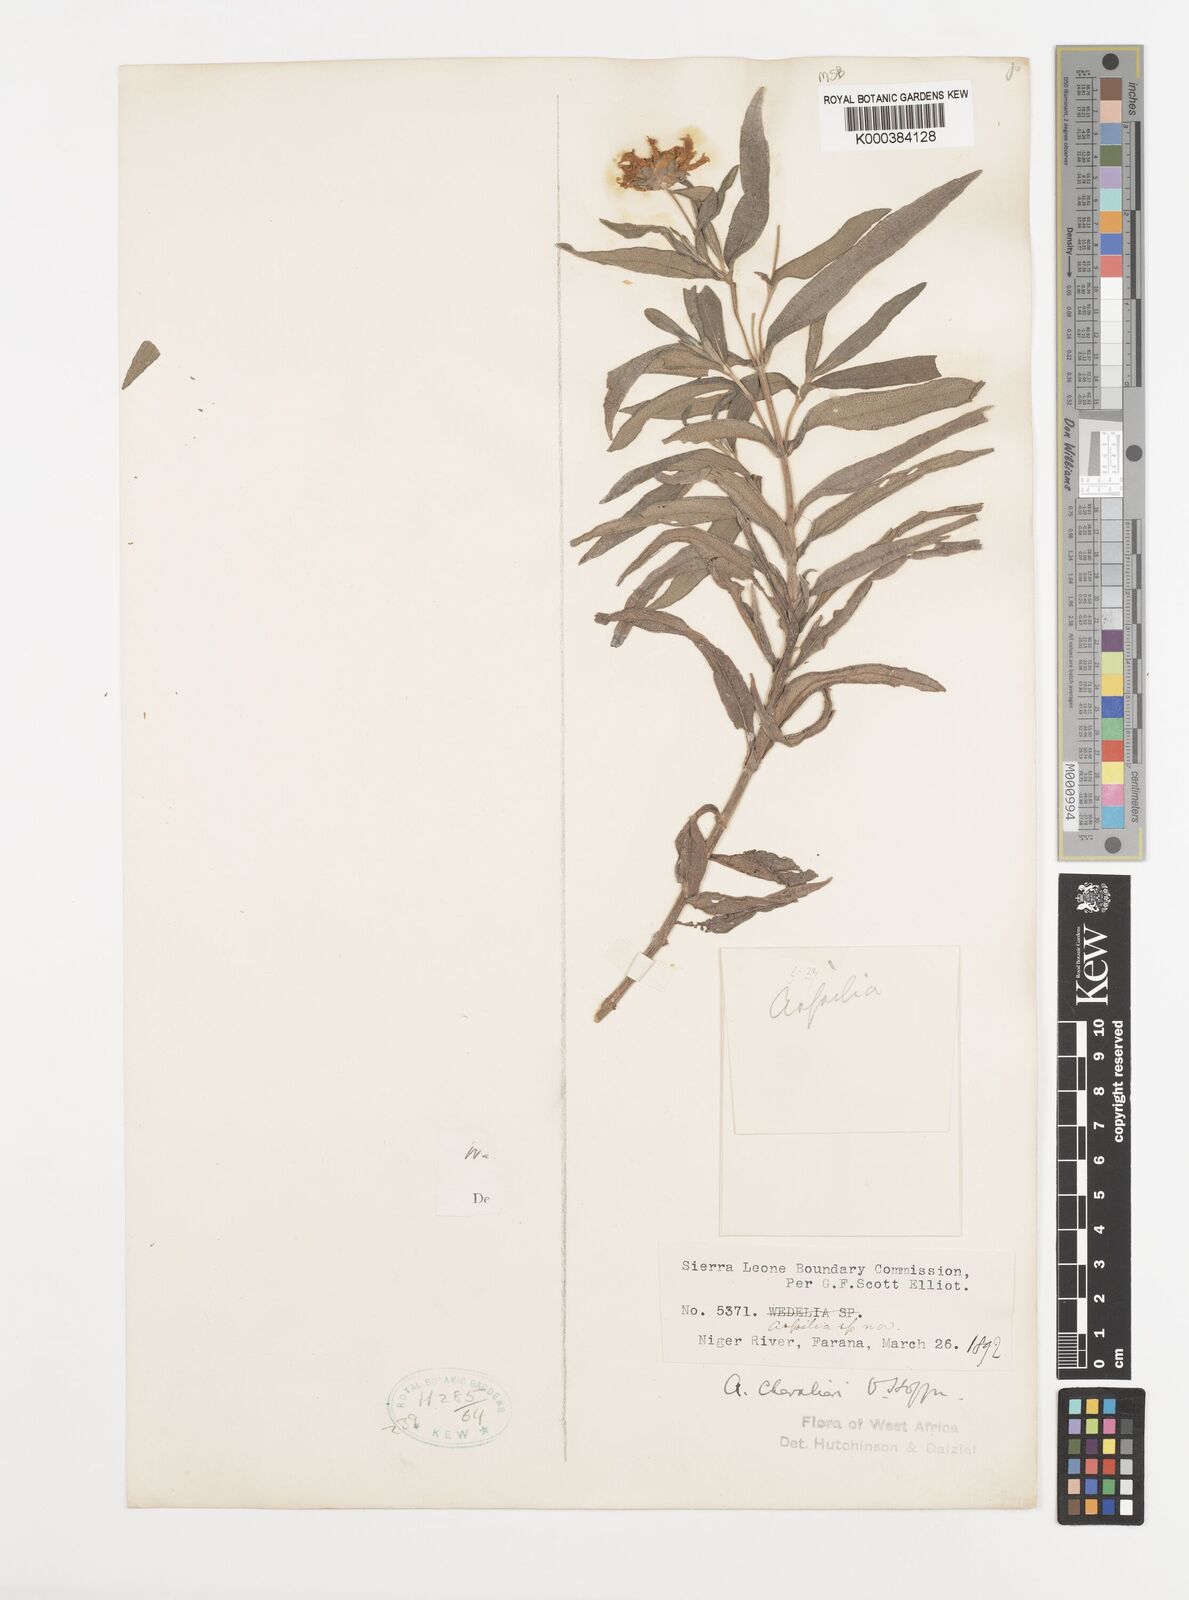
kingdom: Plantae
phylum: Tracheophyta
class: Magnoliopsida
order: Asterales
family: Asteraceae
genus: Aspilia
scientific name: Aspilia chevalieri
